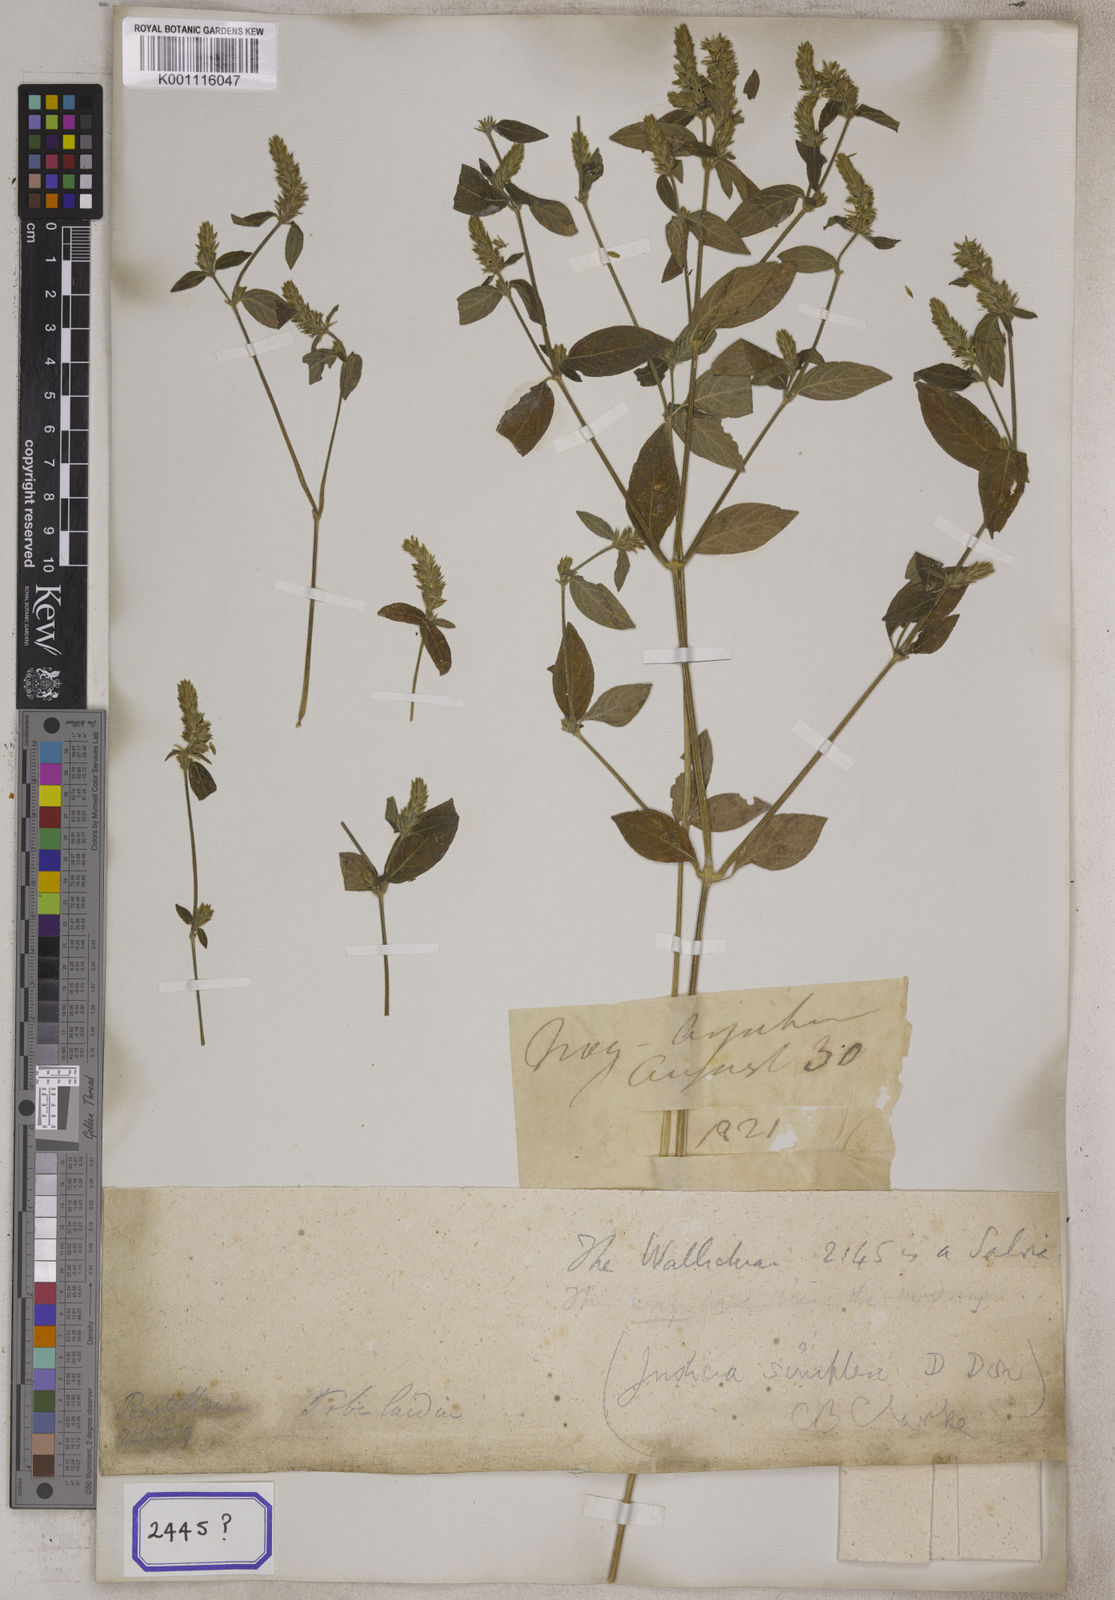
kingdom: Plantae
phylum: Tracheophyta
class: Magnoliopsida
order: Lamiales
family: Acanthaceae
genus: Rostellularia
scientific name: Rostellularia mollissima
